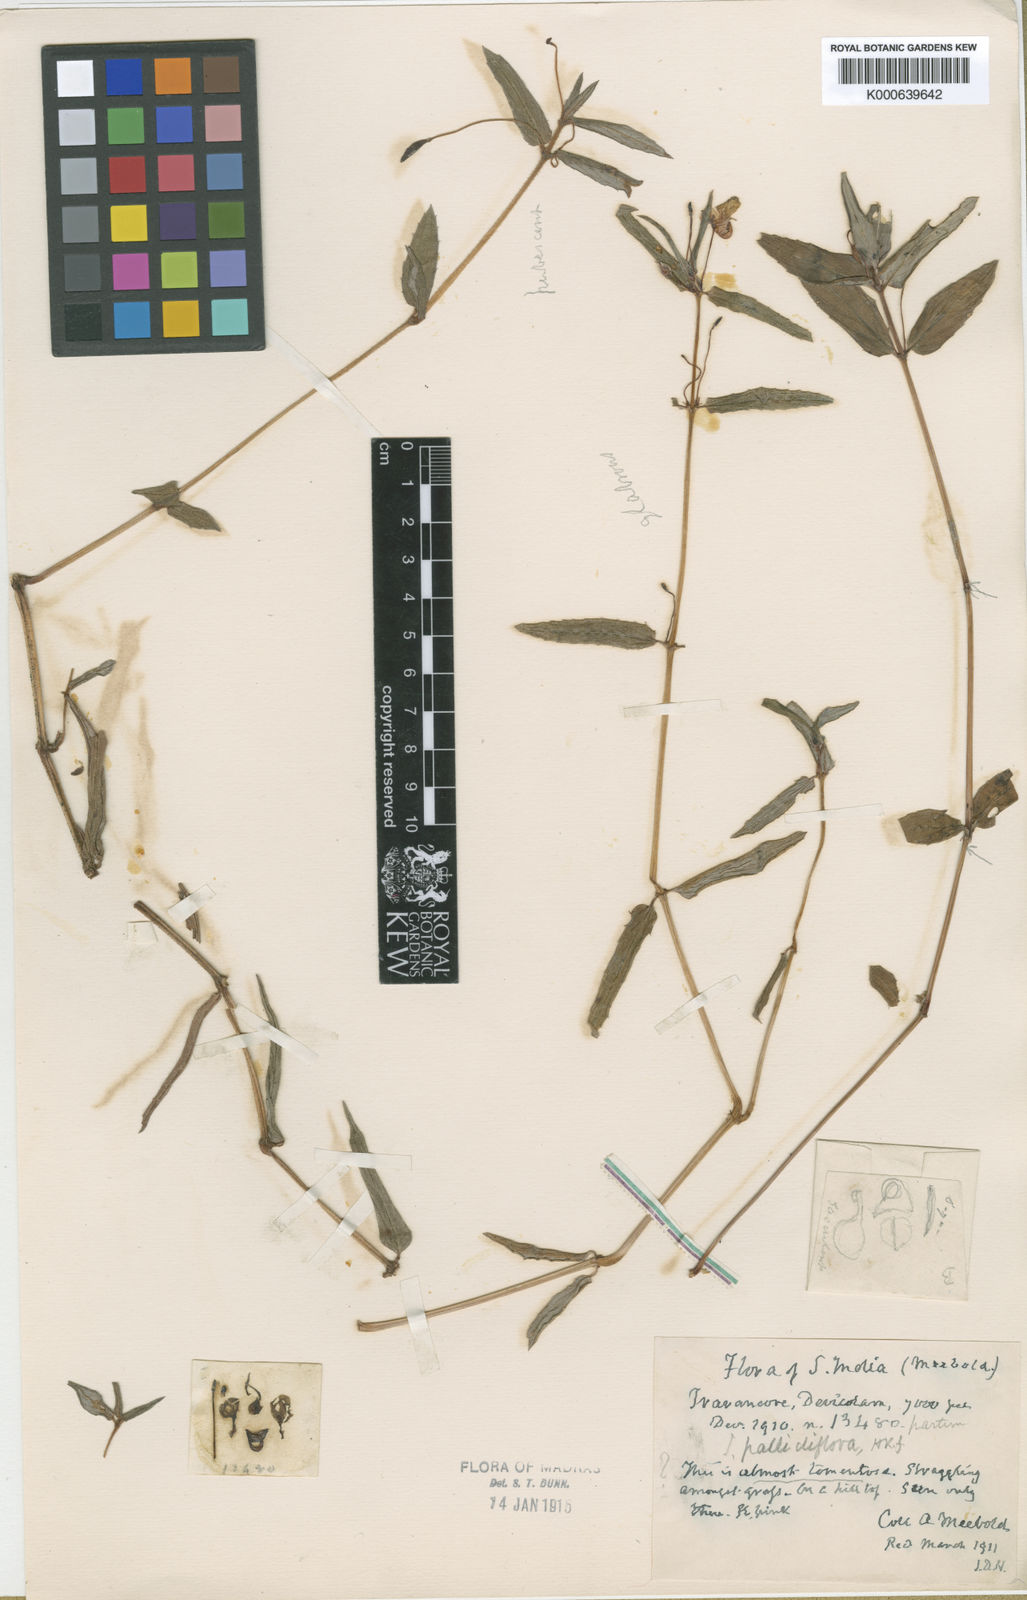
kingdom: Plantae
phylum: Tracheophyta
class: Magnoliopsida
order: Ericales
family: Balsaminaceae
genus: Impatiens
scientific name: Impatiens pallidiflora
